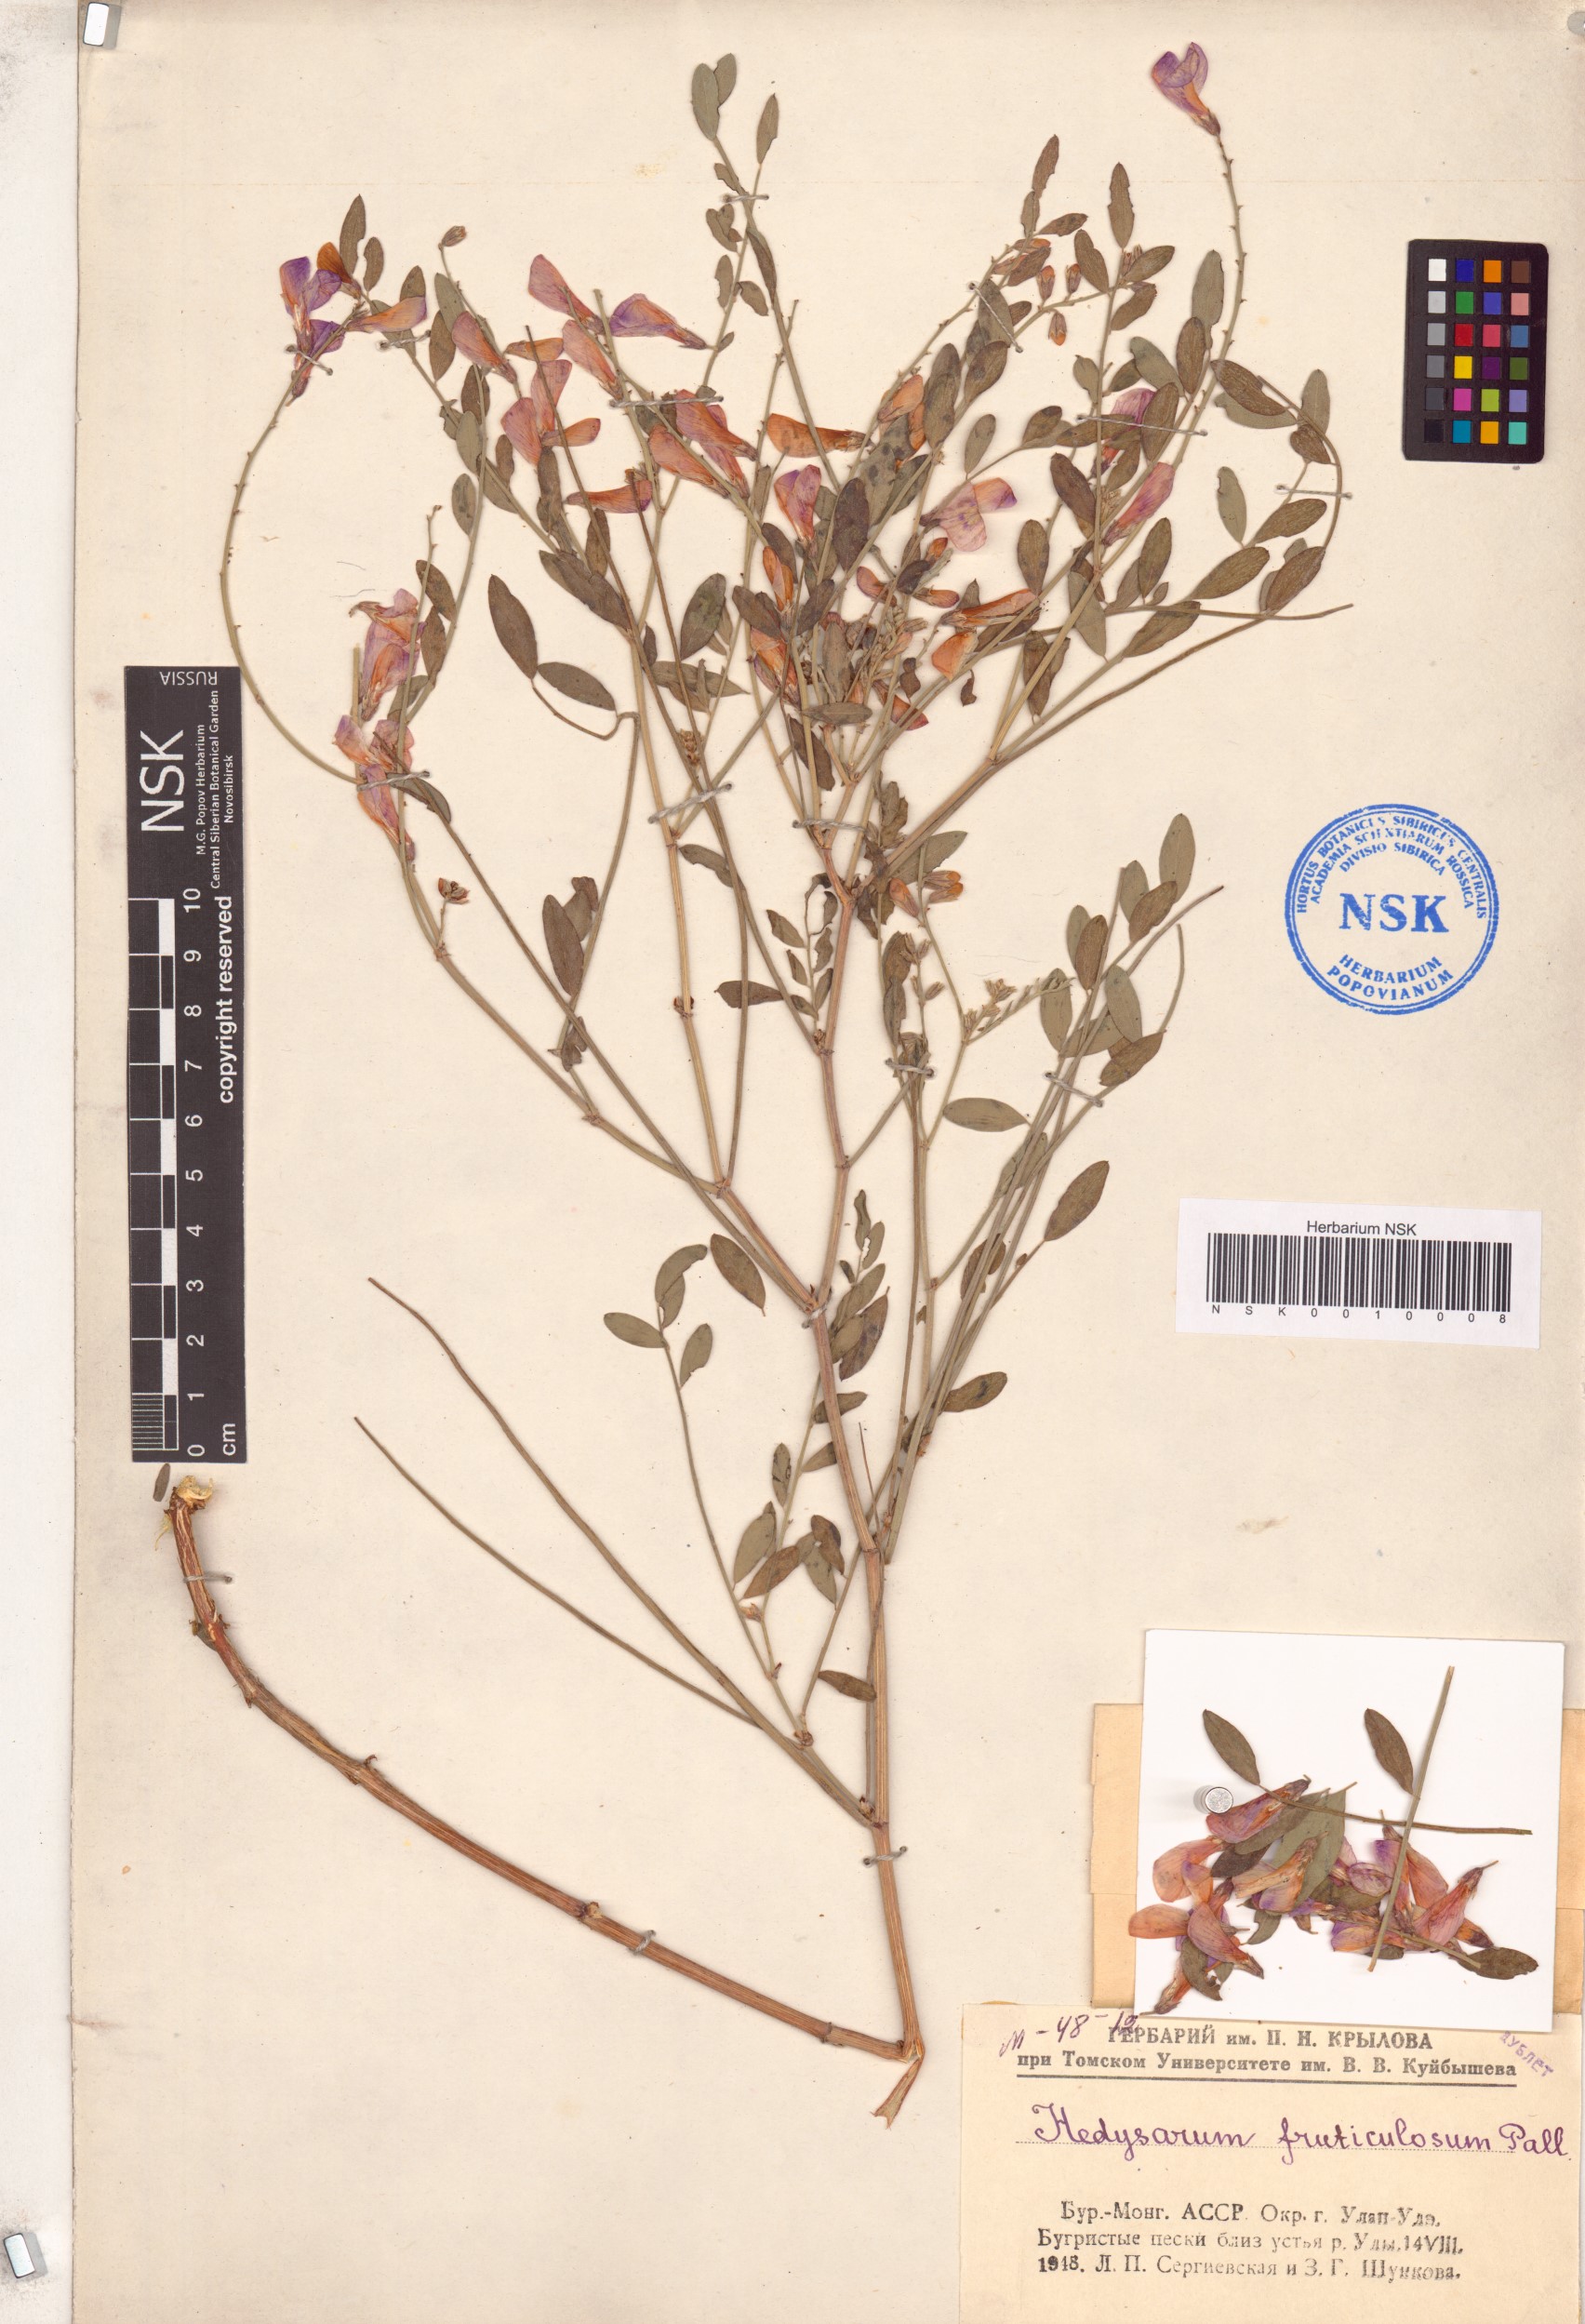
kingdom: Plantae
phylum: Tracheophyta
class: Magnoliopsida
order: Fabales
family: Fabaceae
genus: Corethrodendron
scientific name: Corethrodendron fruticosum
